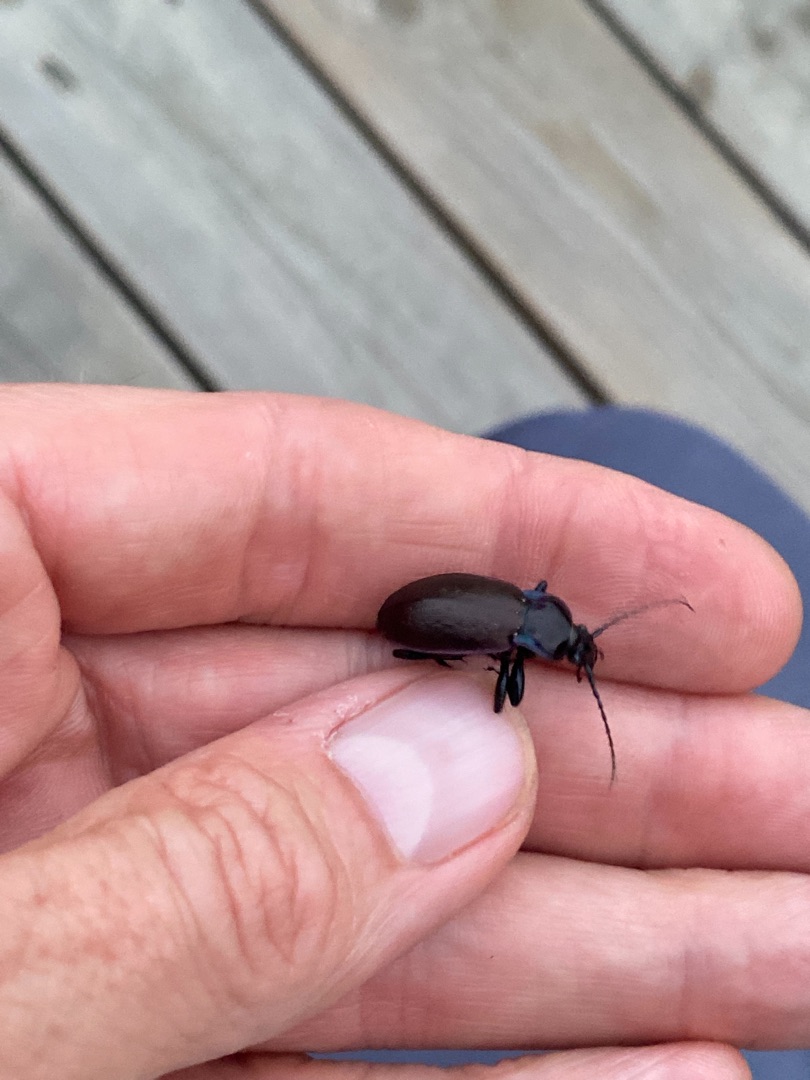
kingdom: Animalia
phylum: Arthropoda
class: Insecta
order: Coleoptera
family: Carabidae
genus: Carabus
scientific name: Carabus nemoralis
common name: Kratløber
